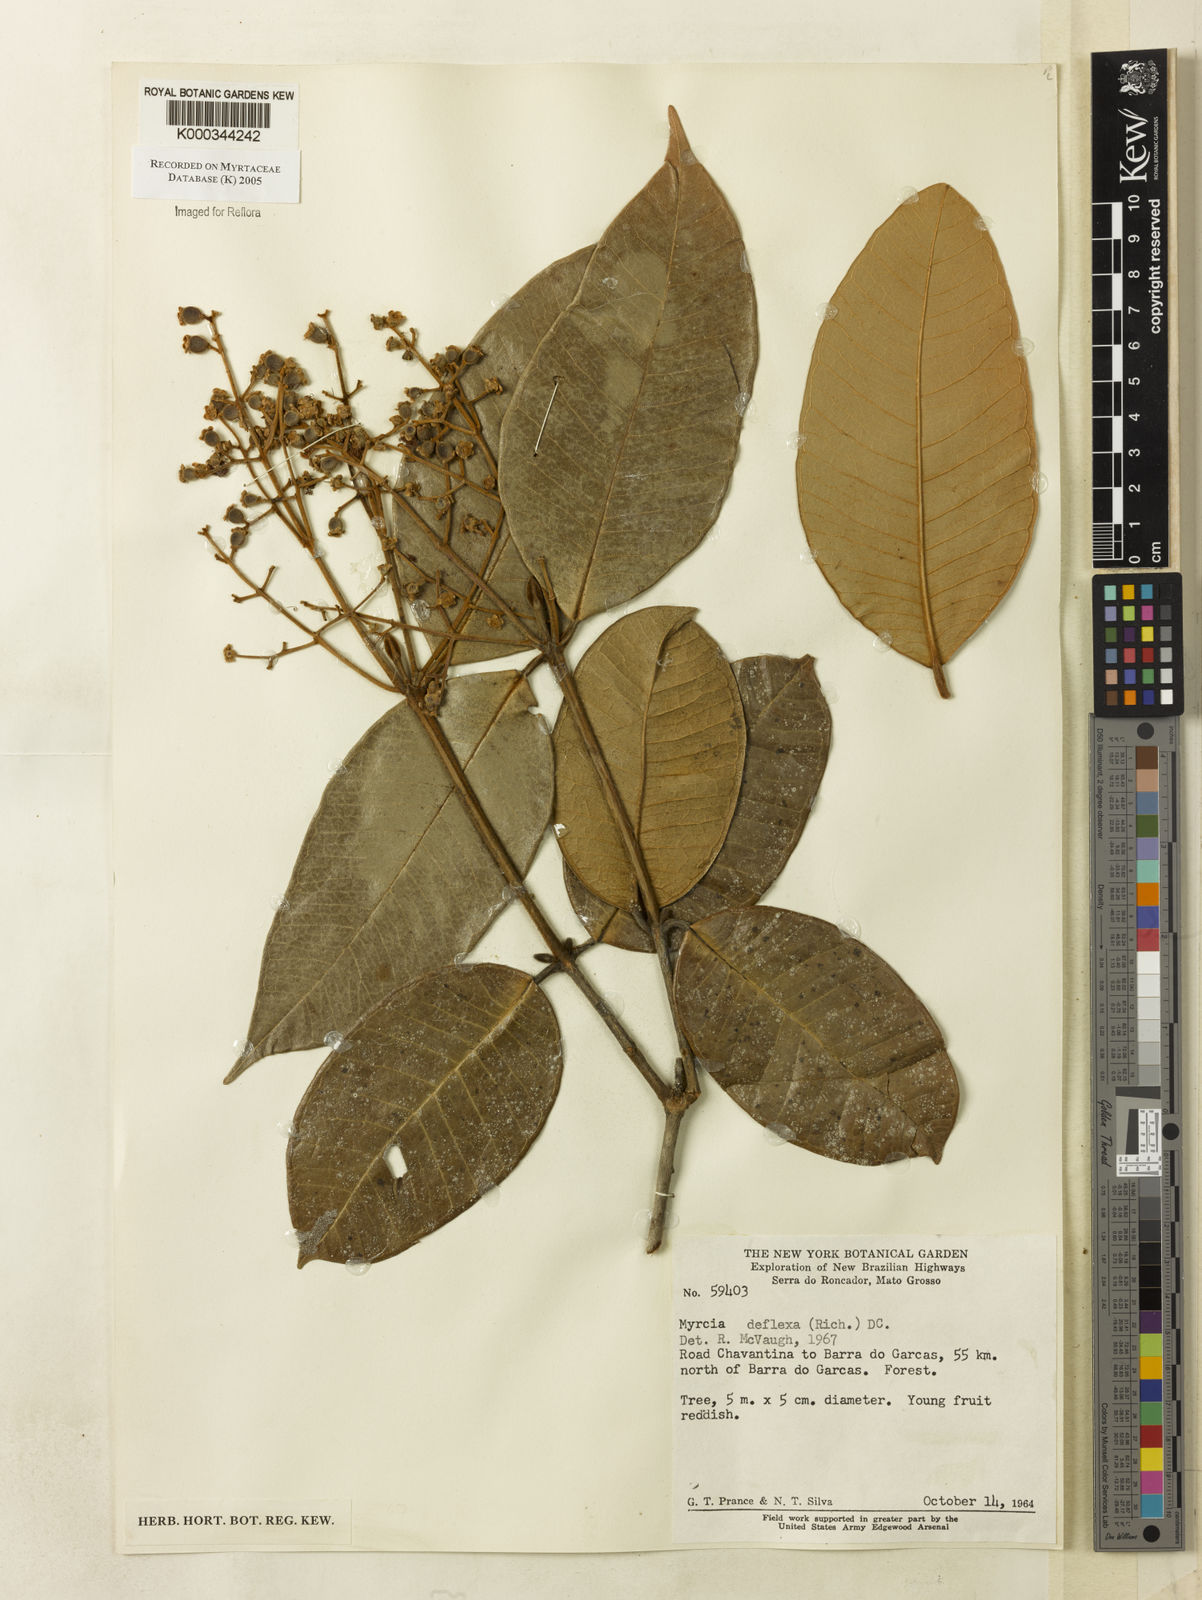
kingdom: Plantae
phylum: Tracheophyta
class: Magnoliopsida
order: Myrtales
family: Myrtaceae
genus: Myrcia
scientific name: Myrcia deflexa
